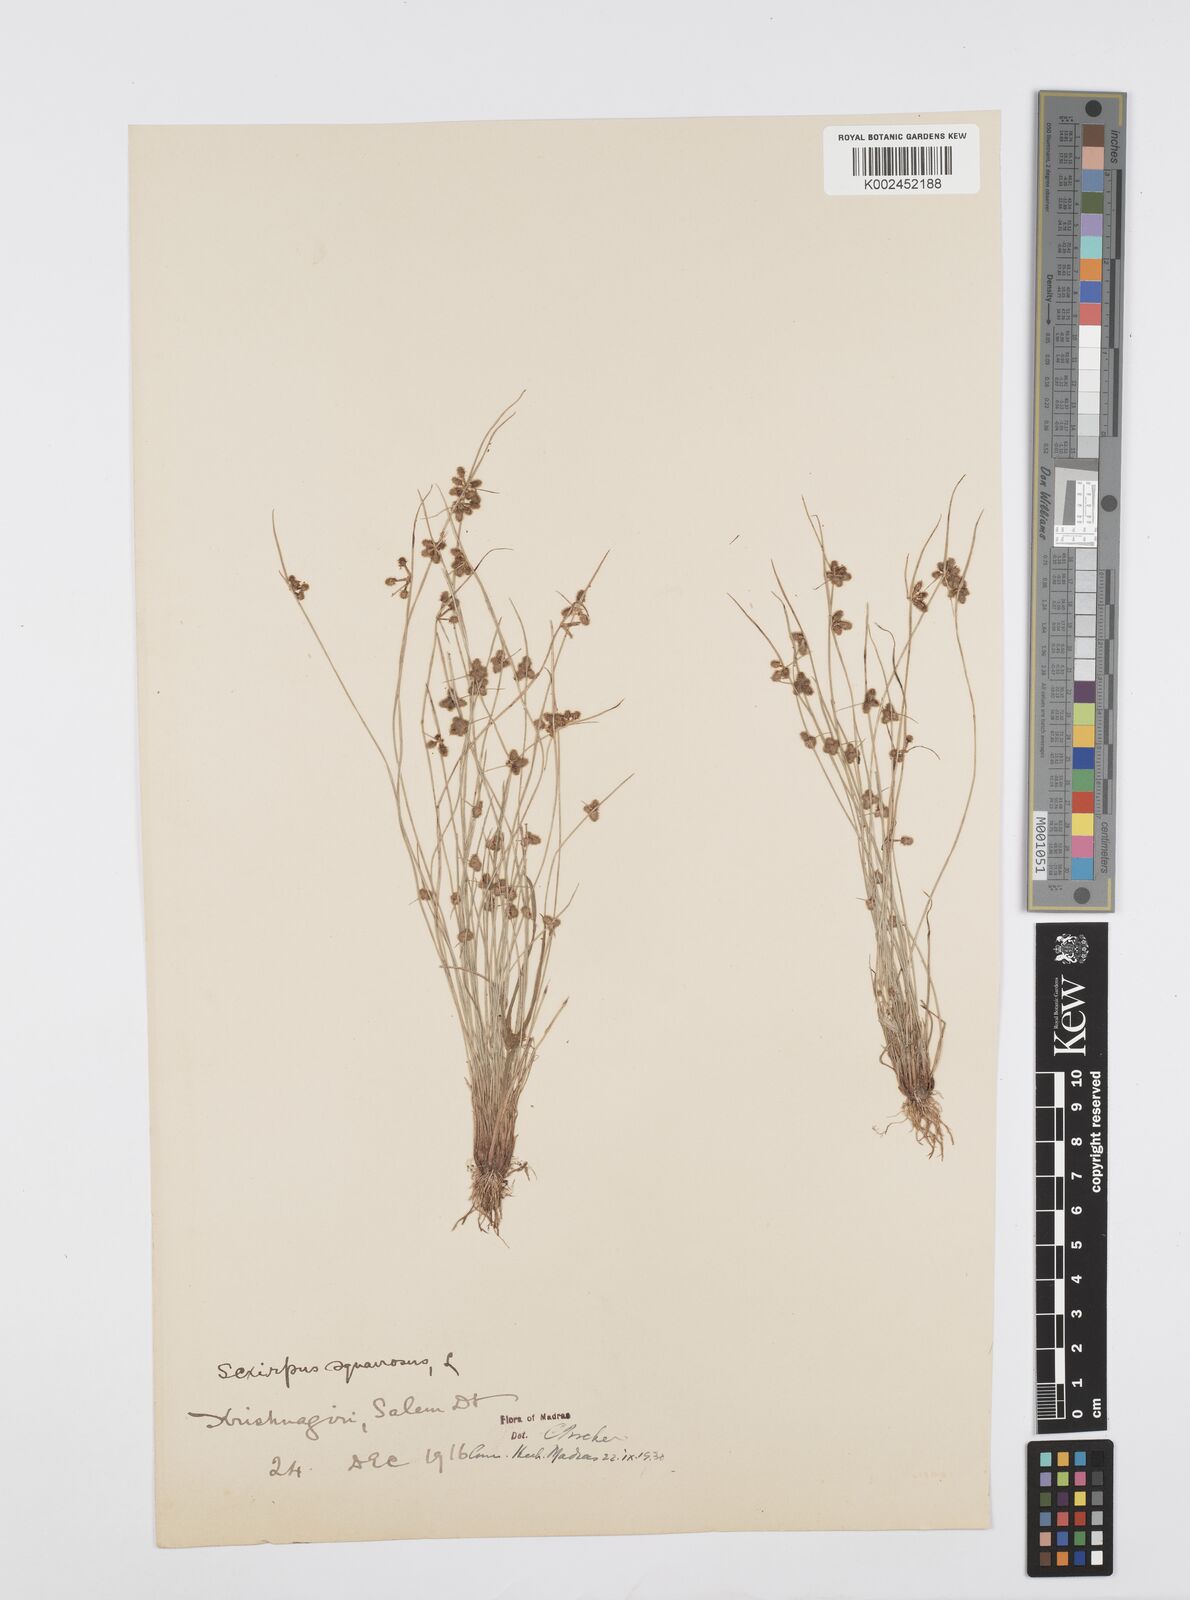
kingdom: Plantae
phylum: Tracheophyta
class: Liliopsida
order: Poales
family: Cyperaceae
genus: Cyperus
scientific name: Cyperus squarrosus
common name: Awned cyperus
